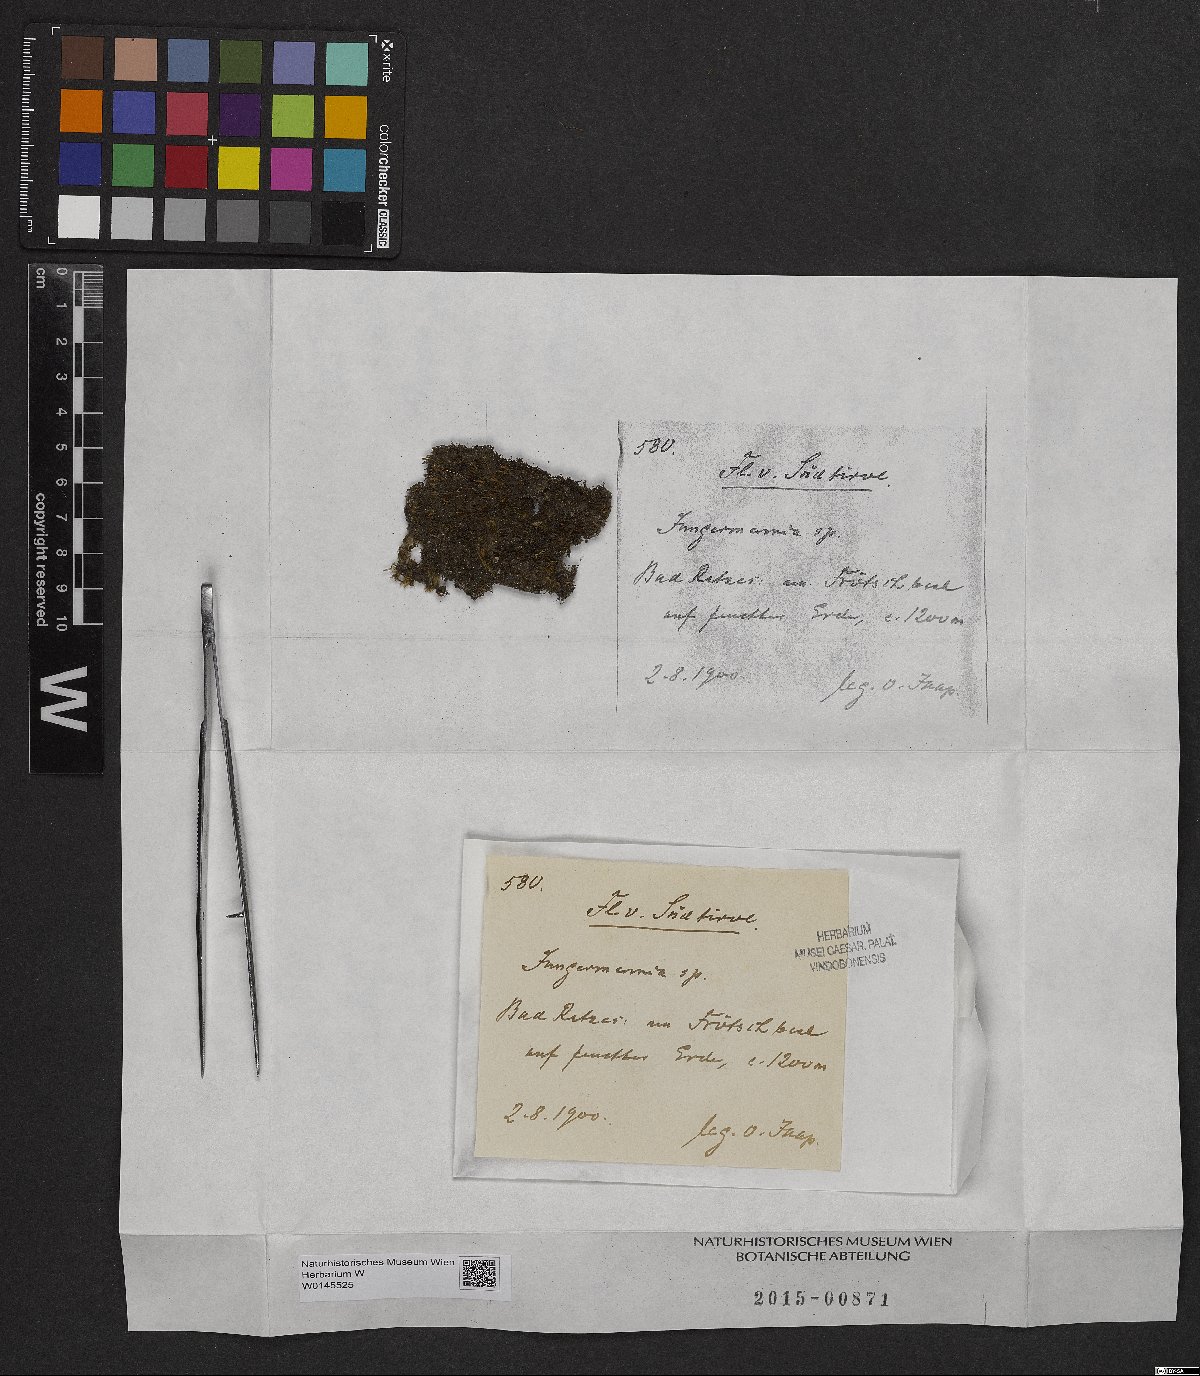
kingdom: Plantae
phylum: Marchantiophyta
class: Jungermanniopsida
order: Jungermanniales
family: Jungermanniaceae
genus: Jungermannia
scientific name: Jungermannia
